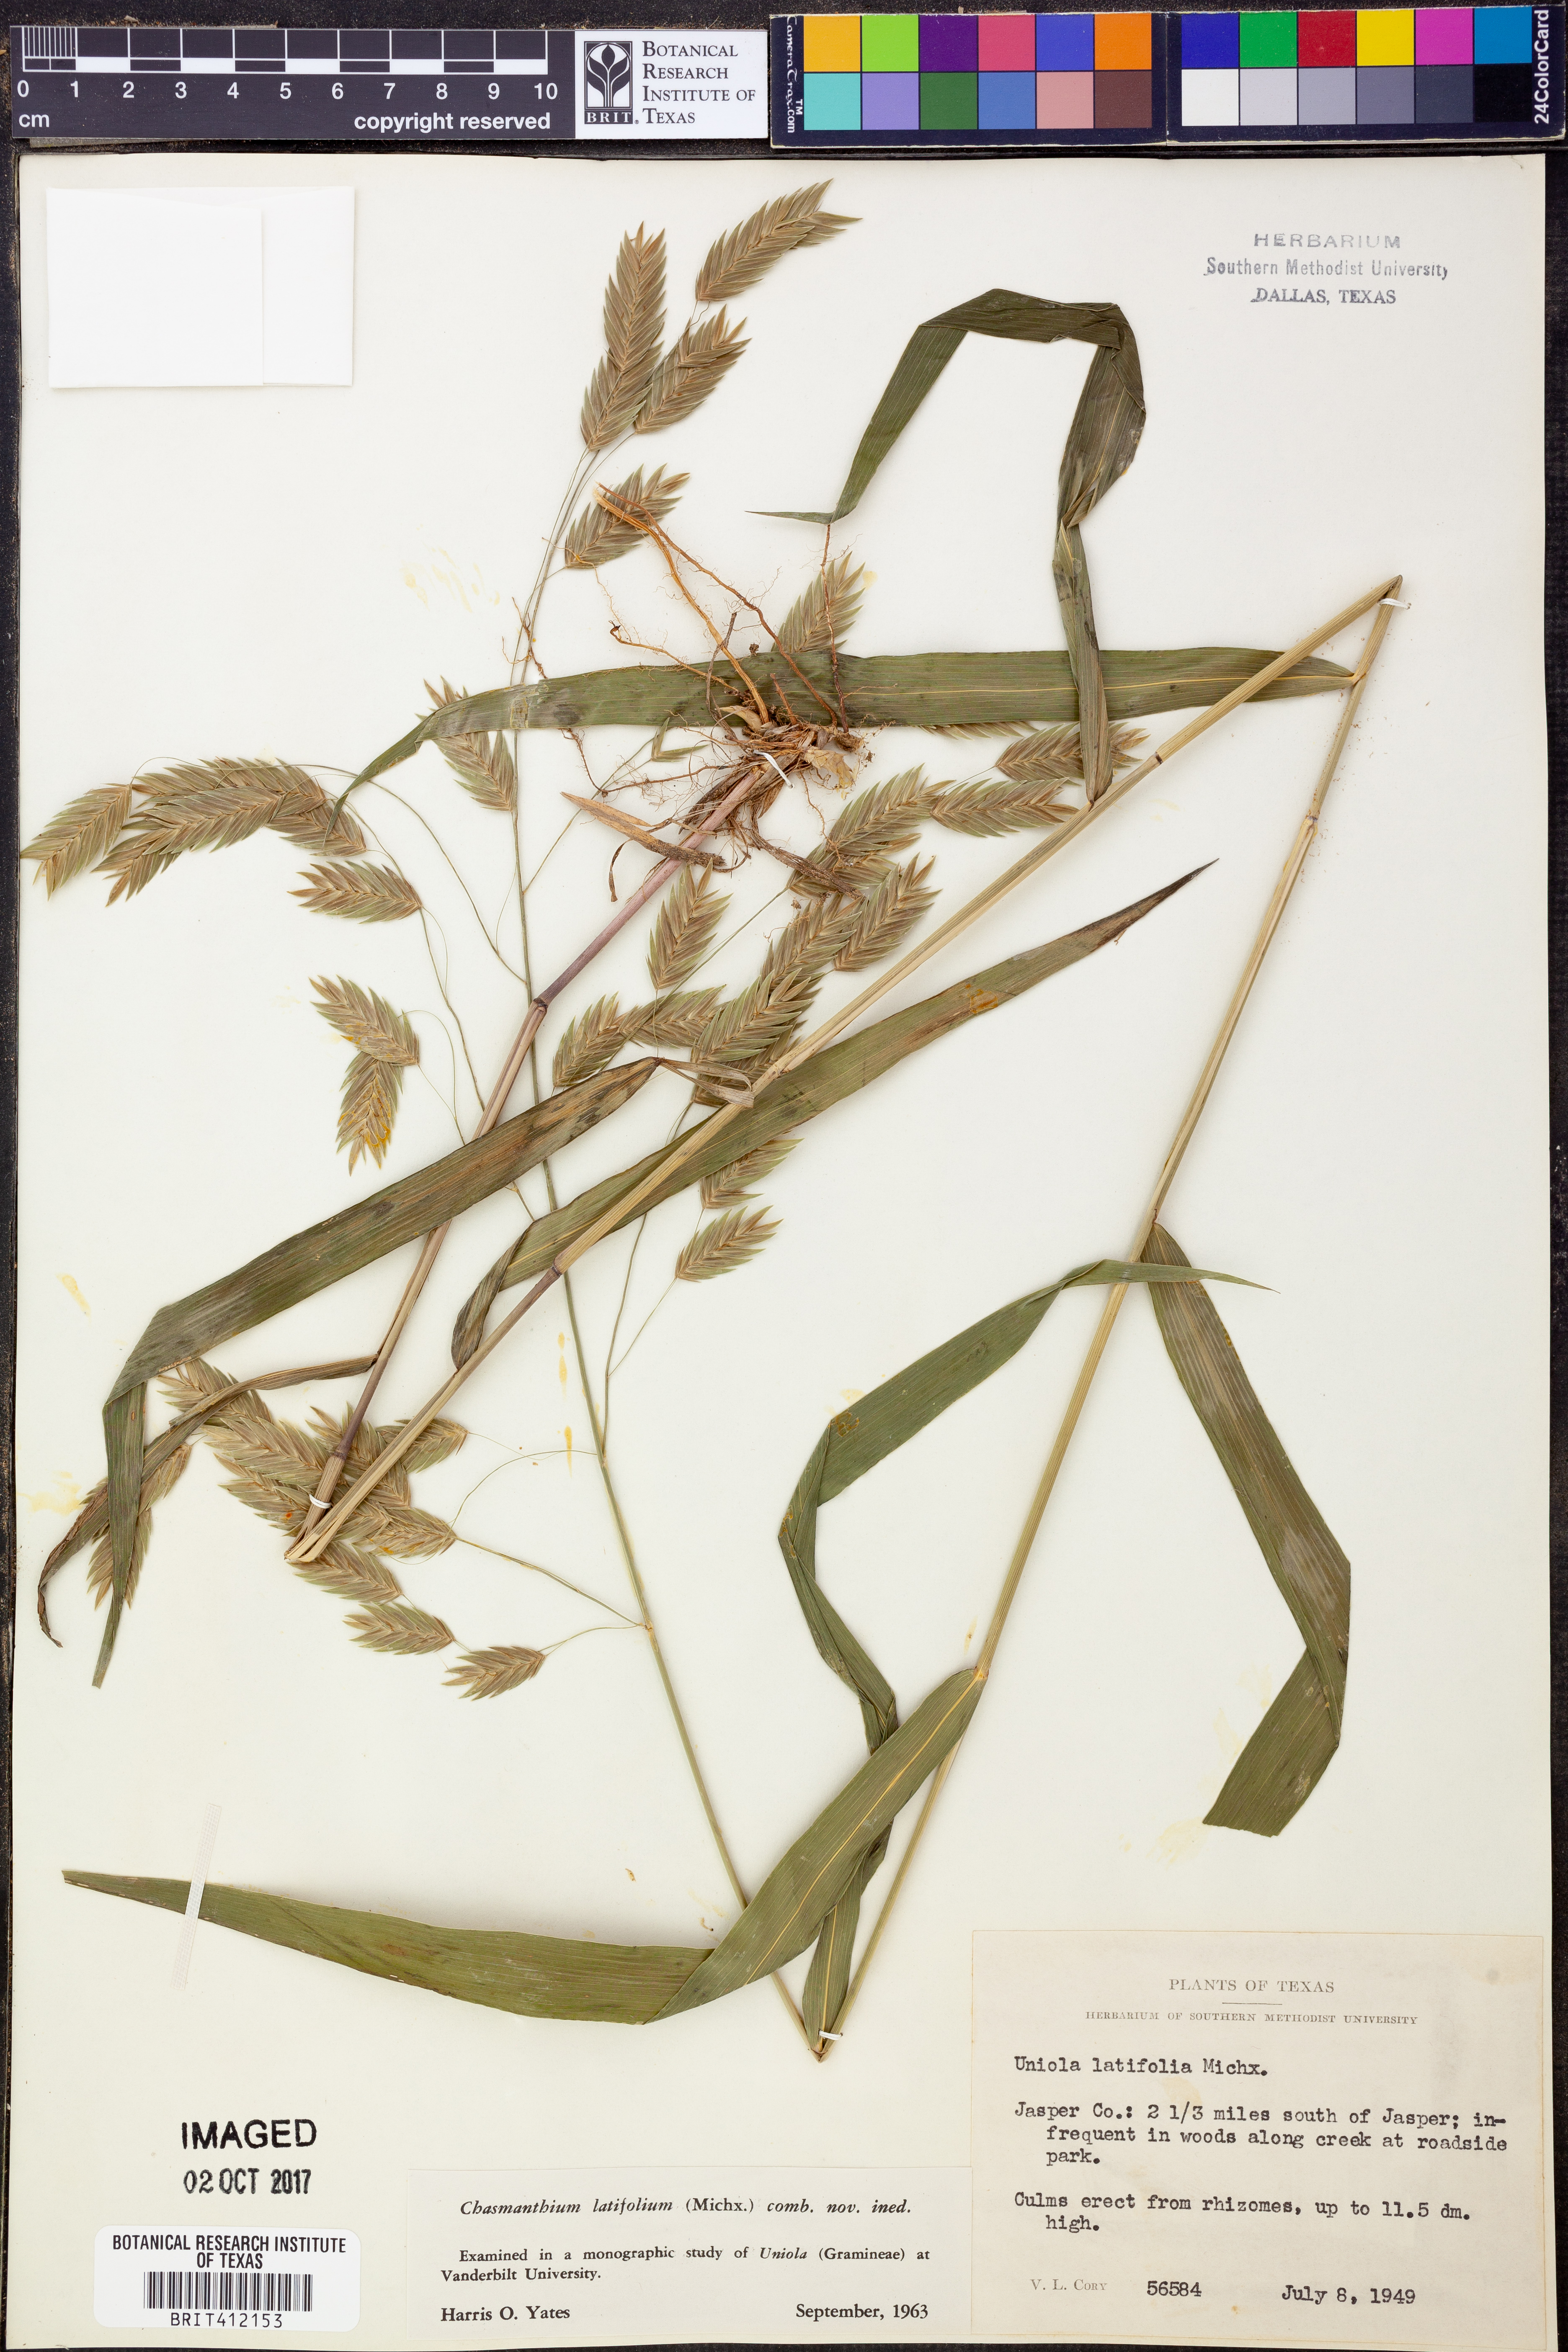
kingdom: Plantae
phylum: Tracheophyta
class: Liliopsida
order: Poales
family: Poaceae
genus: Chasmanthium
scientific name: Chasmanthium latifolium
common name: Broad-leaved chasmanthium
